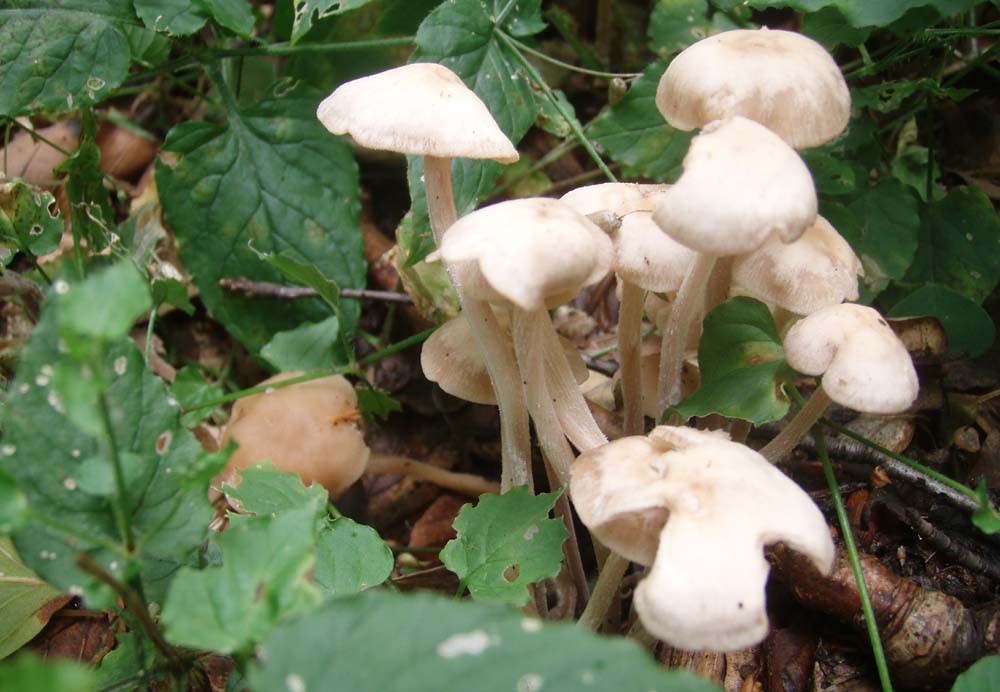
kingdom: Fungi
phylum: Basidiomycota
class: Agaricomycetes
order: Agaricales
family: Omphalotaceae
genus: Collybiopsis
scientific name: Collybiopsis confluens
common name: knippe-fladhat
